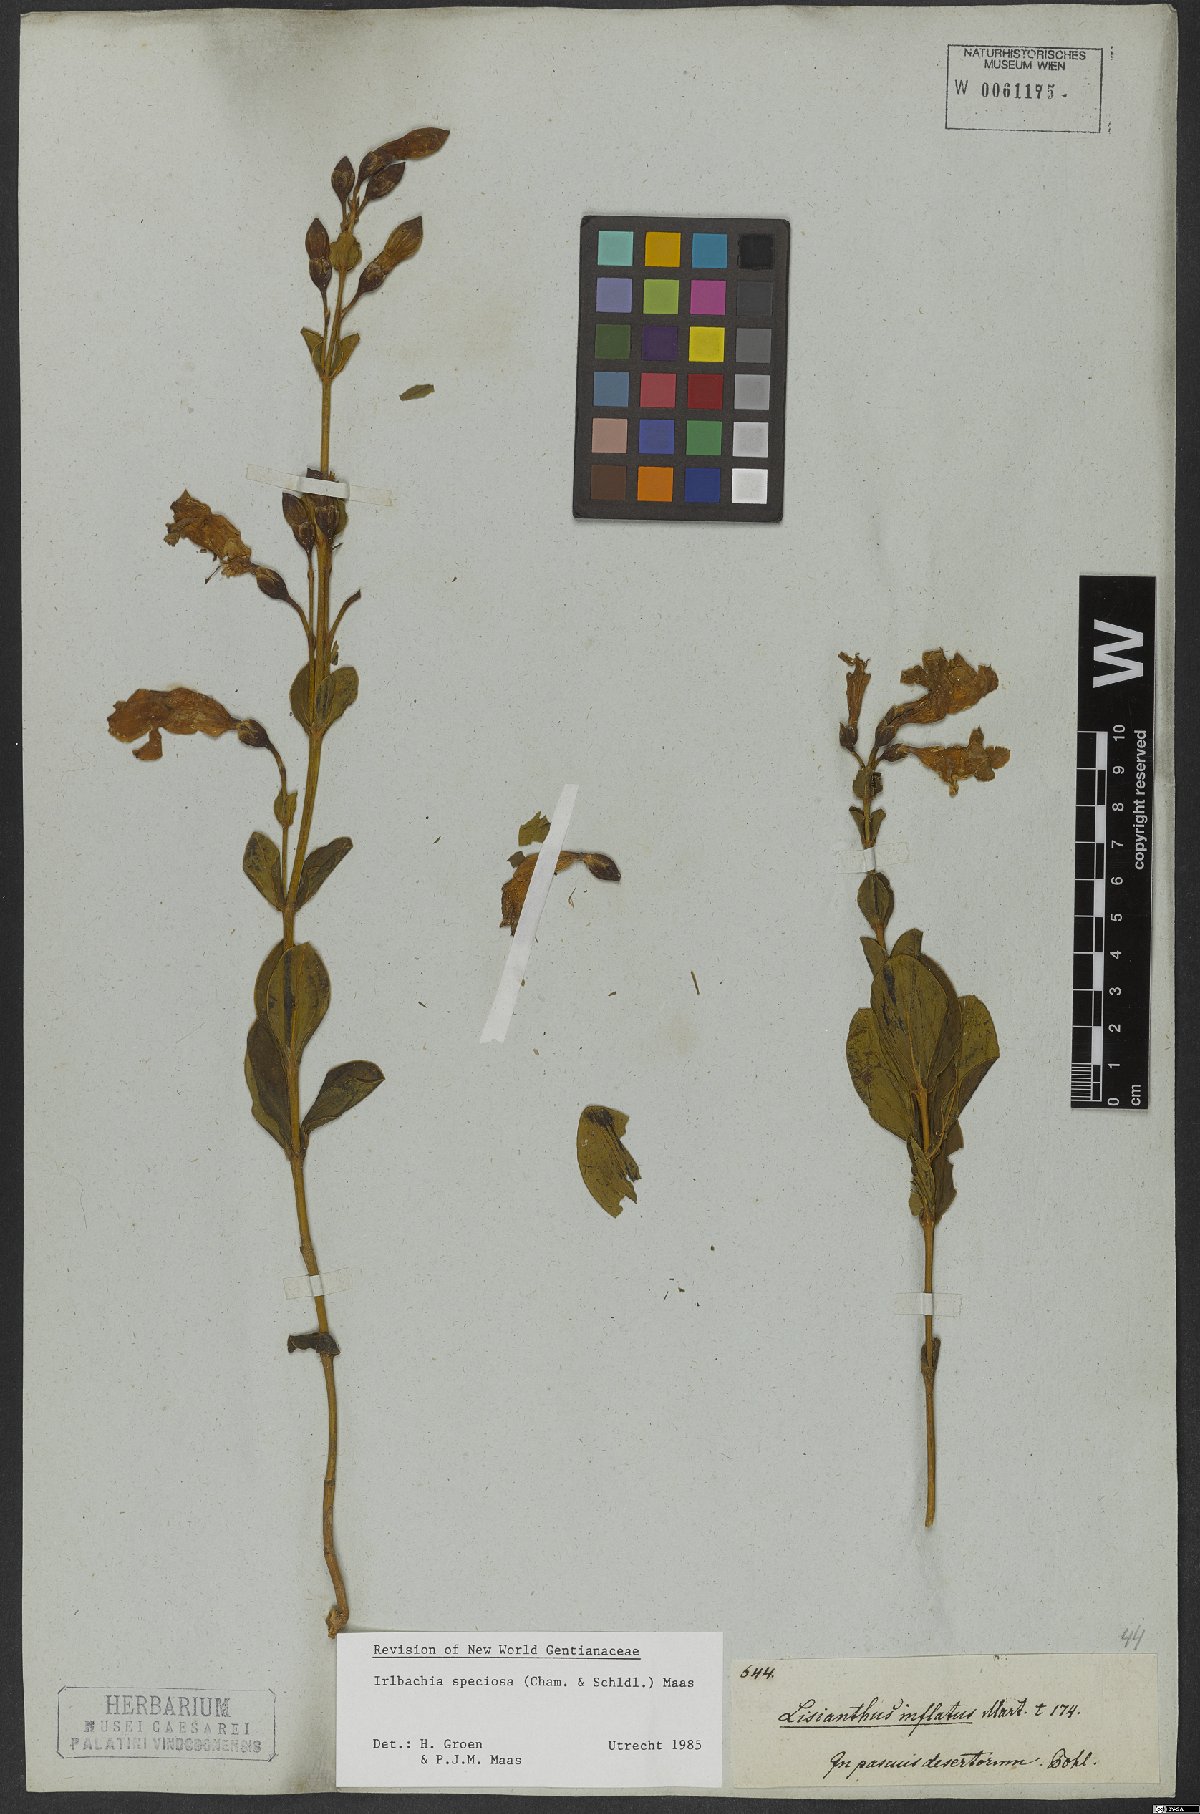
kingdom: Plantae
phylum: Tracheophyta
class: Magnoliopsida
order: Gentianales
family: Gentianaceae
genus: Calolisianthus
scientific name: Calolisianthus speciosus
